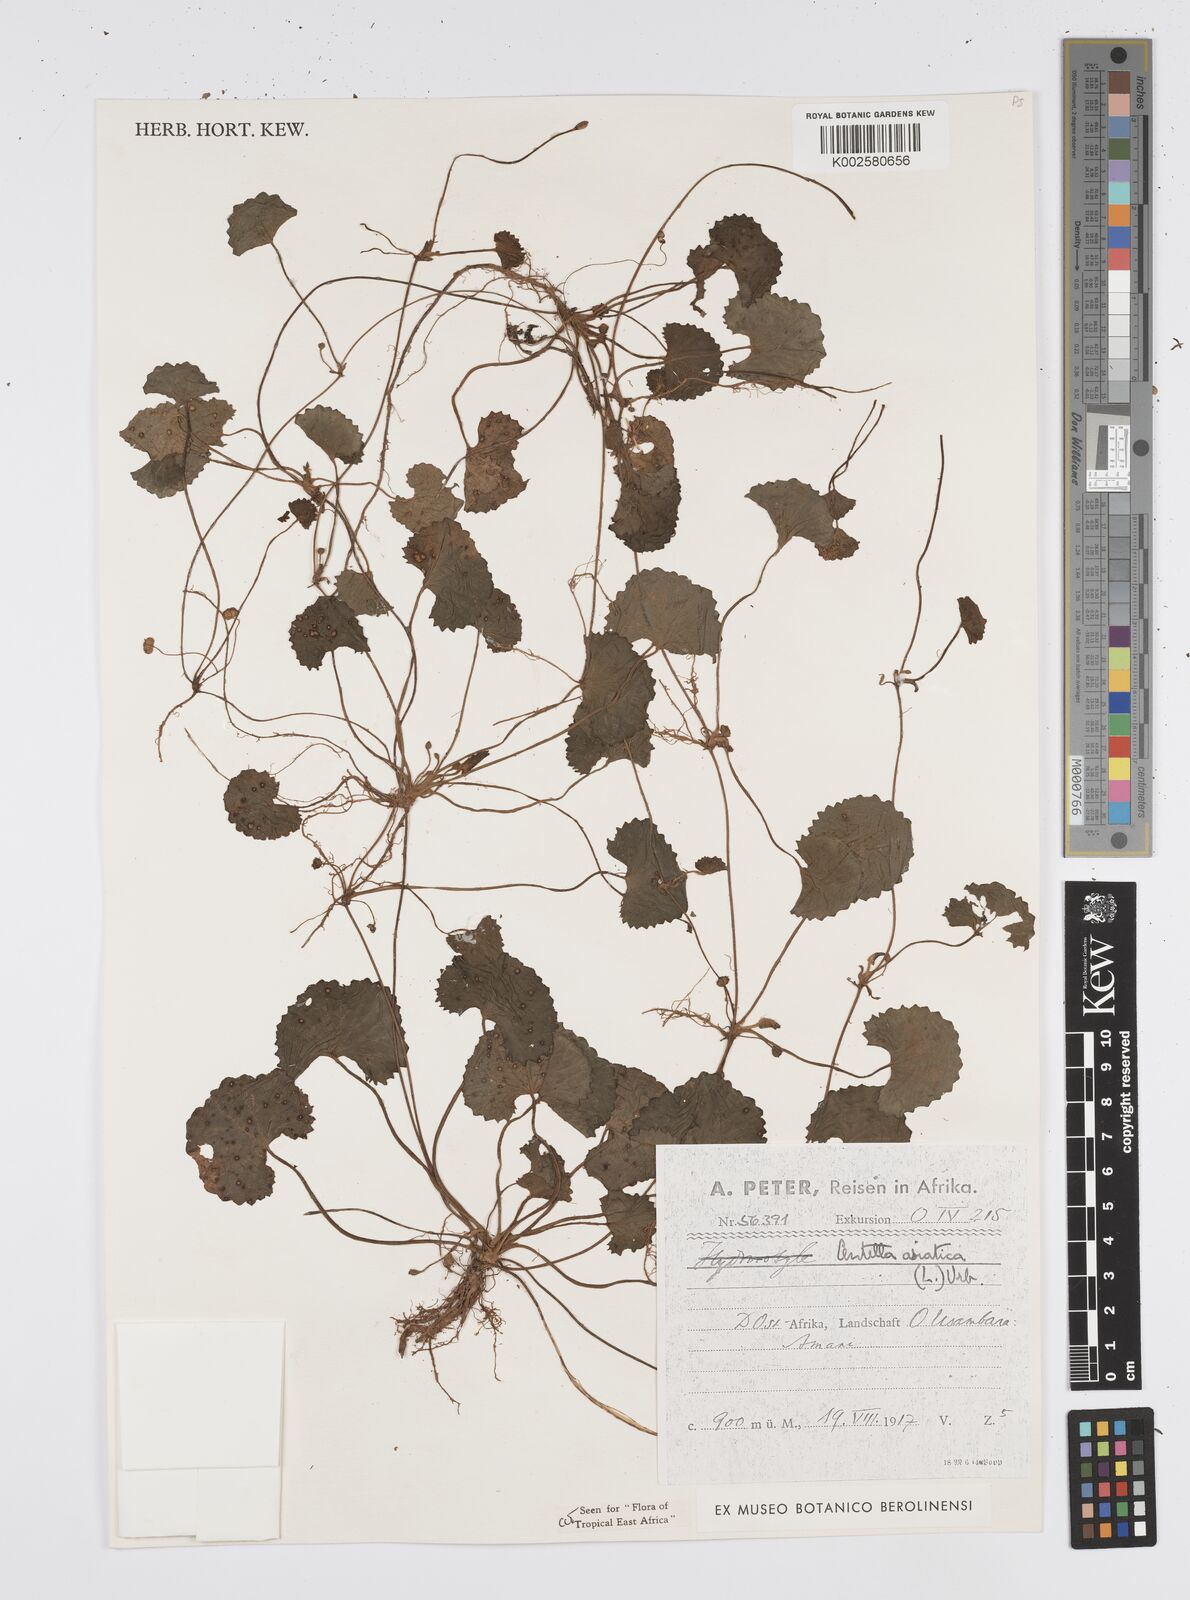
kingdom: Plantae
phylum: Tracheophyta
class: Magnoliopsida
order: Apiales
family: Apiaceae
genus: Centella
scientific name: Centella asiatica
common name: Spadeleaf
